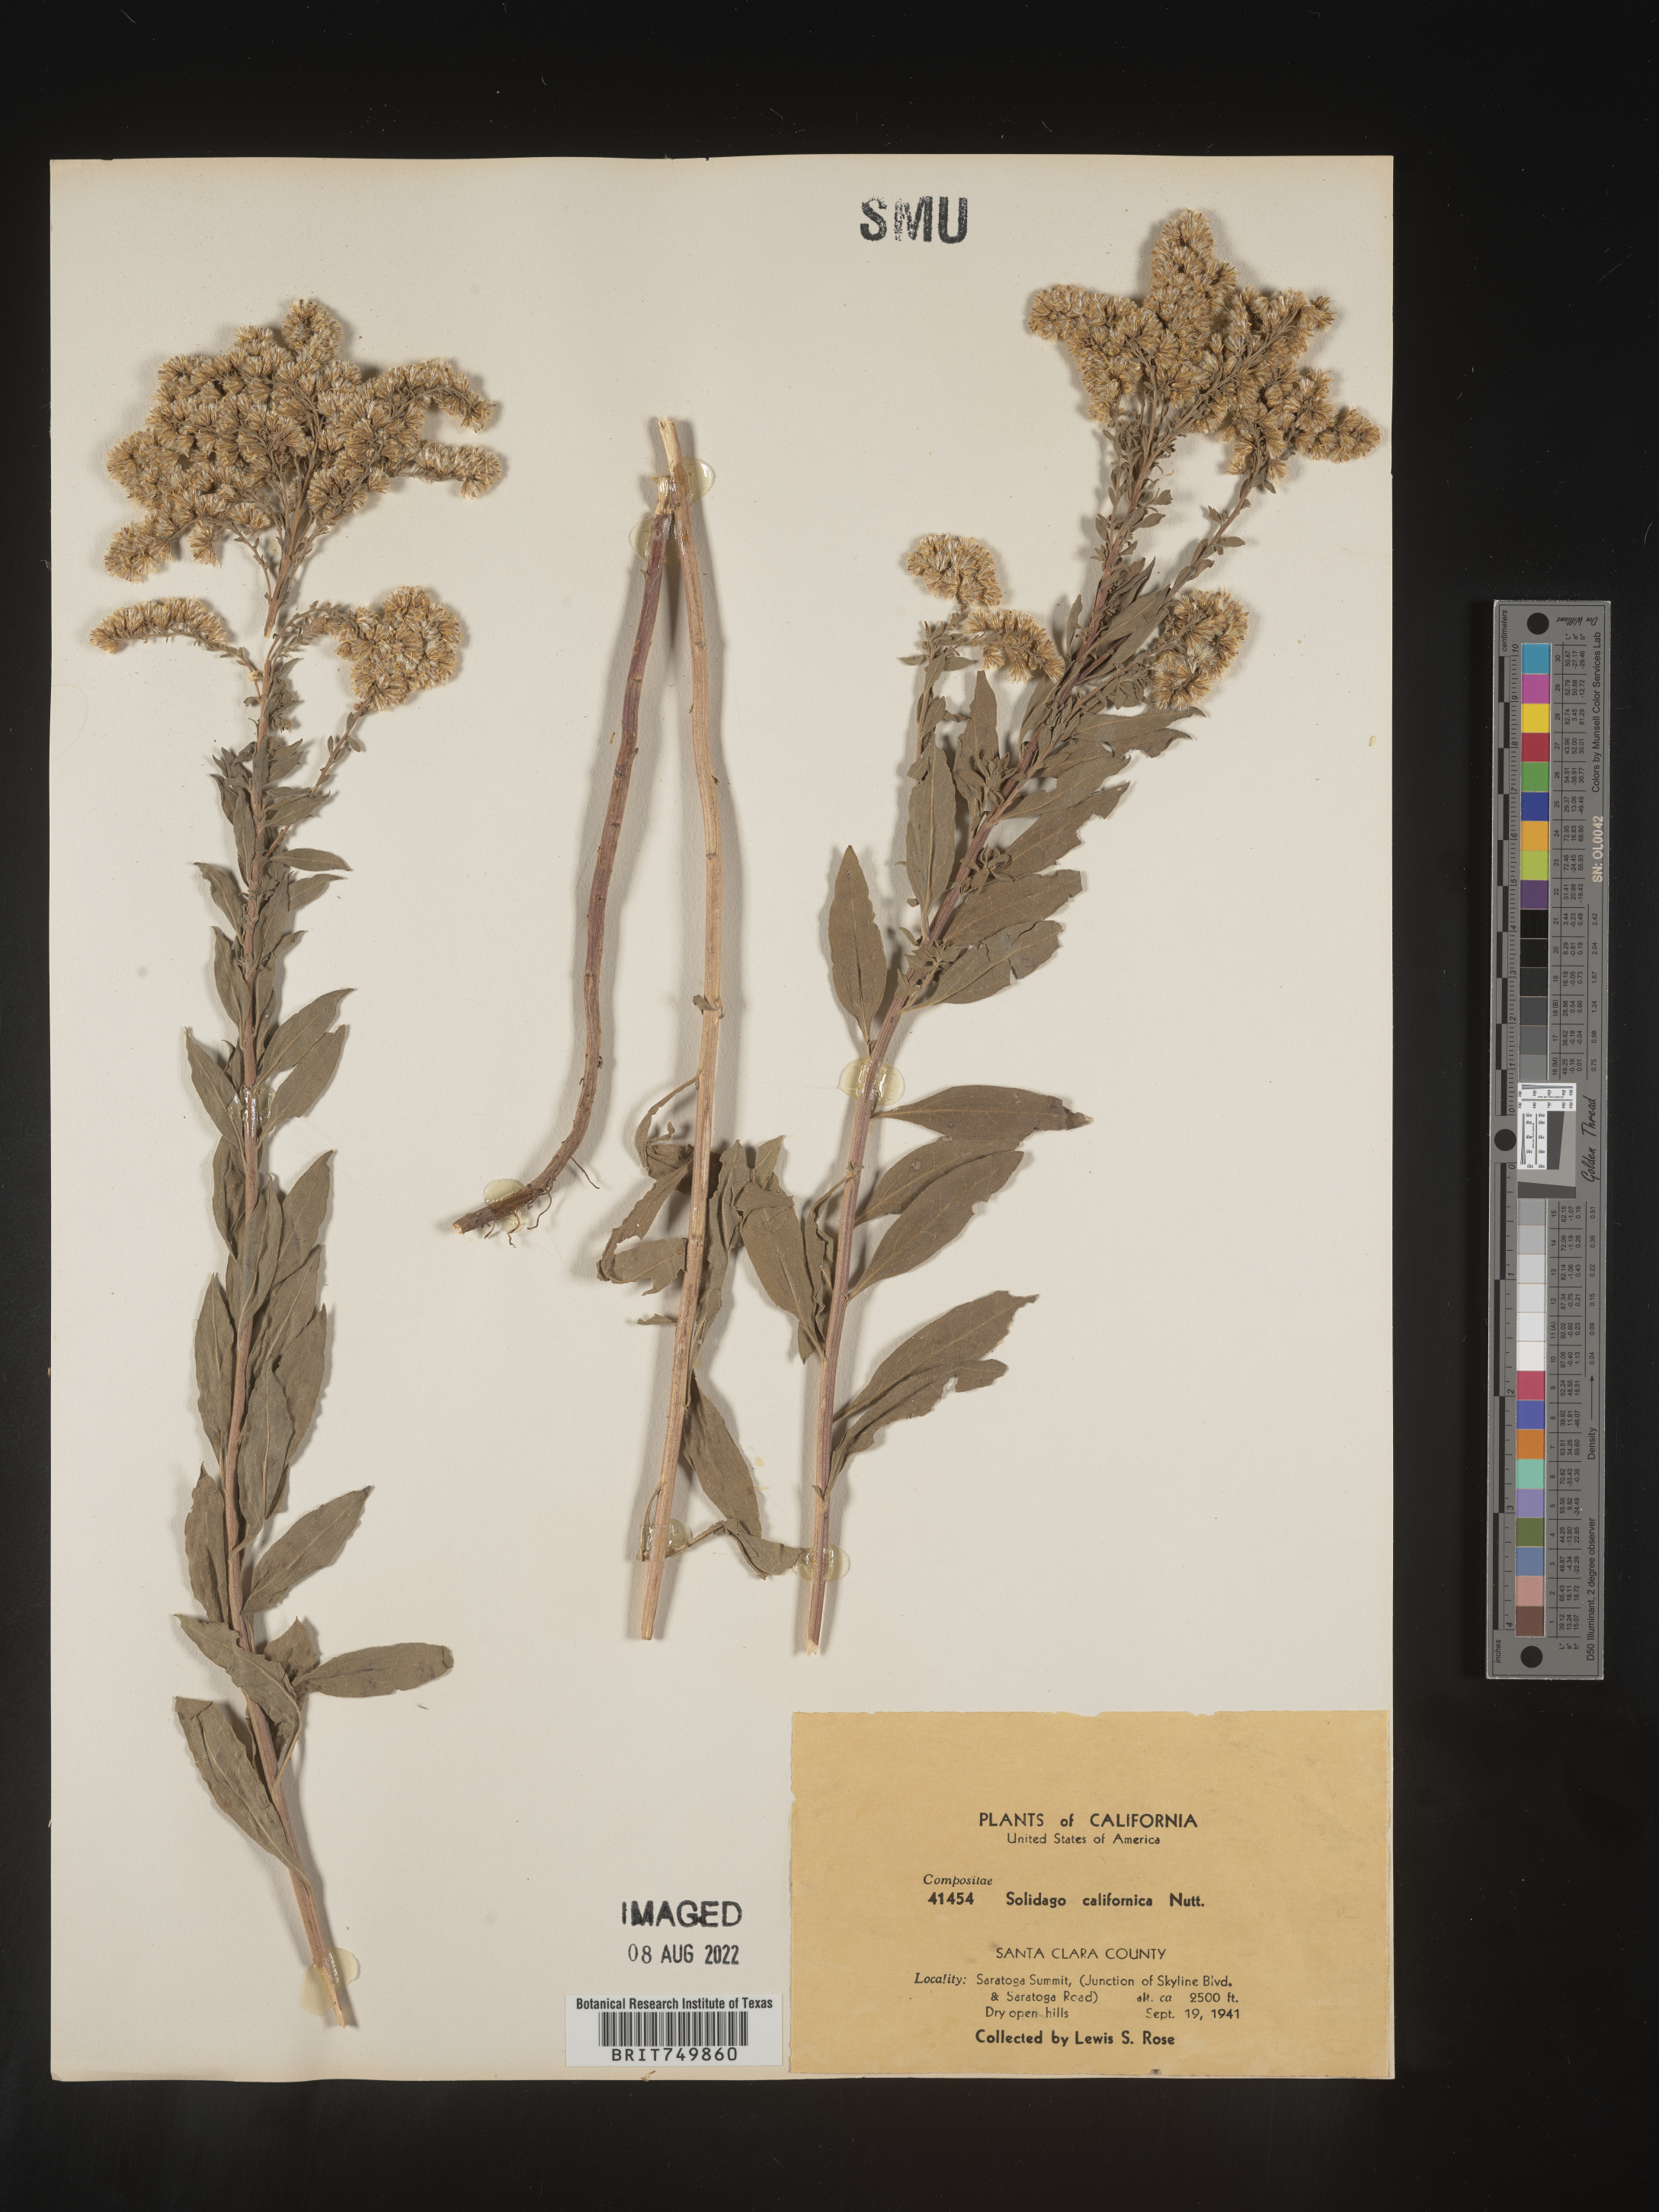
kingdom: Plantae
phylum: Tracheophyta
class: Magnoliopsida
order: Asterales
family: Asteraceae
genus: Solidago
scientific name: Solidago californica
